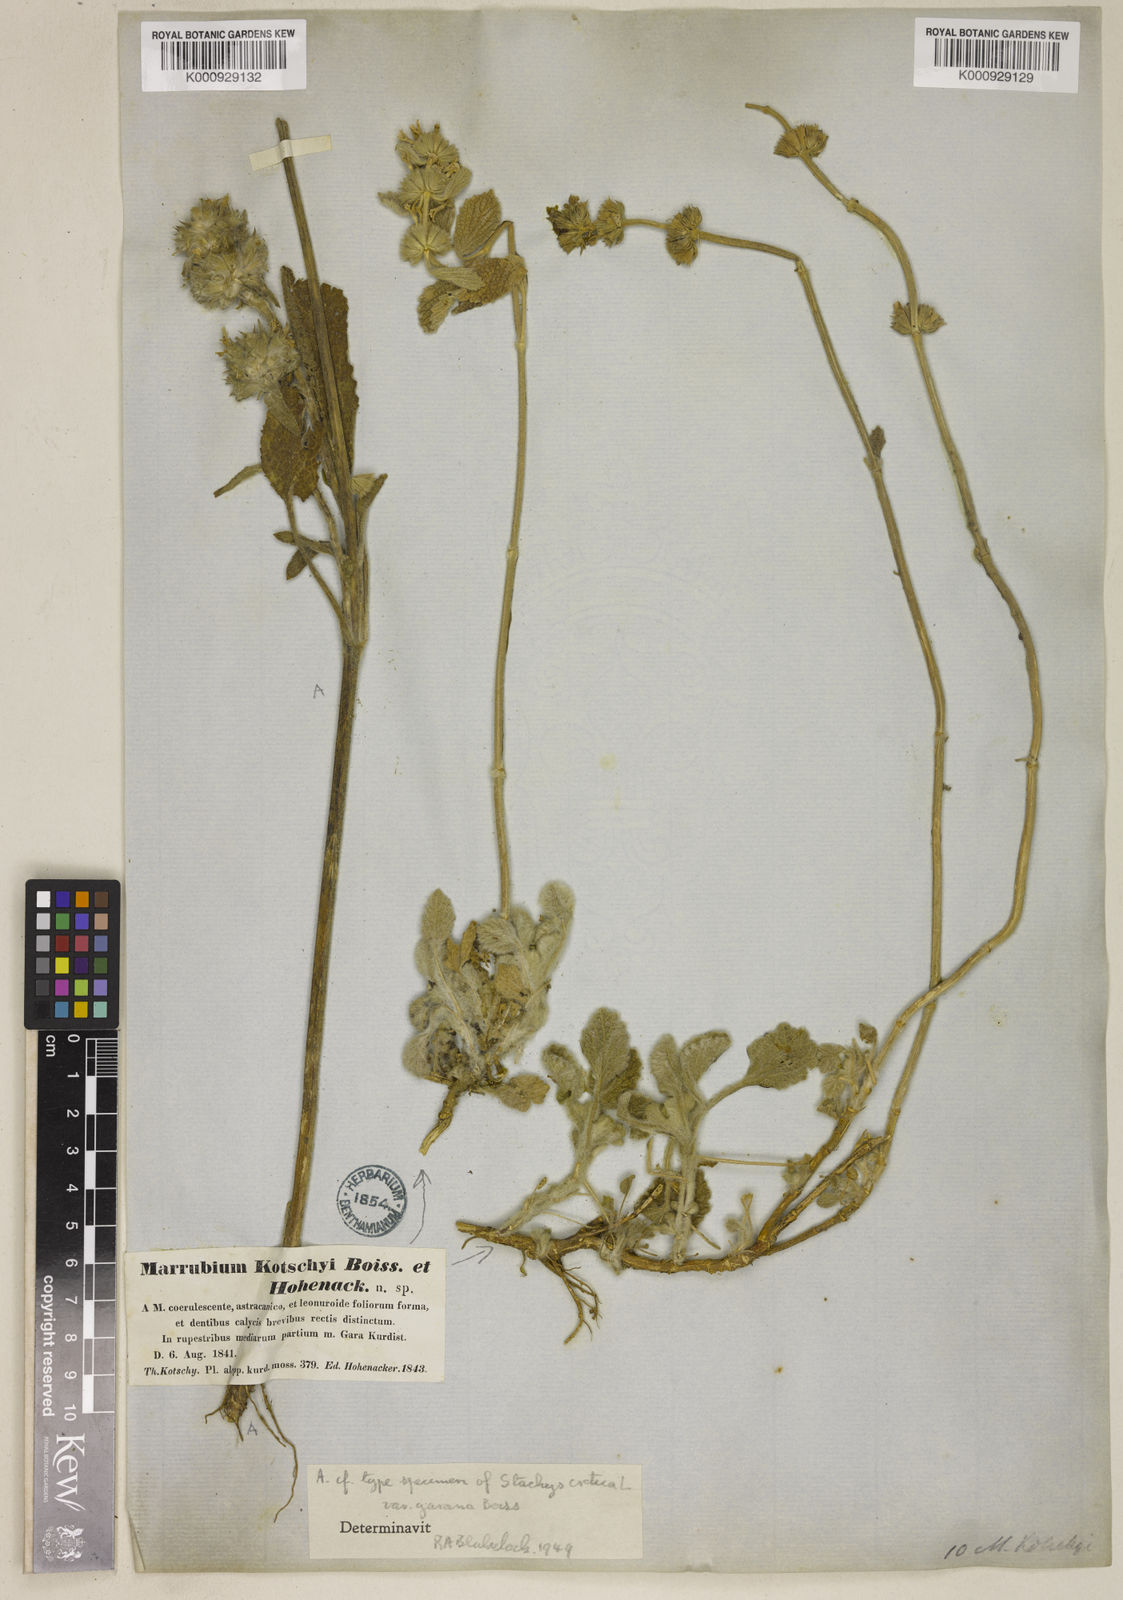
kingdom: Plantae
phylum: Tracheophyta
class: Magnoliopsida
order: Lamiales
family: Lamiaceae
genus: Marrubium
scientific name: Marrubium astracanicum
